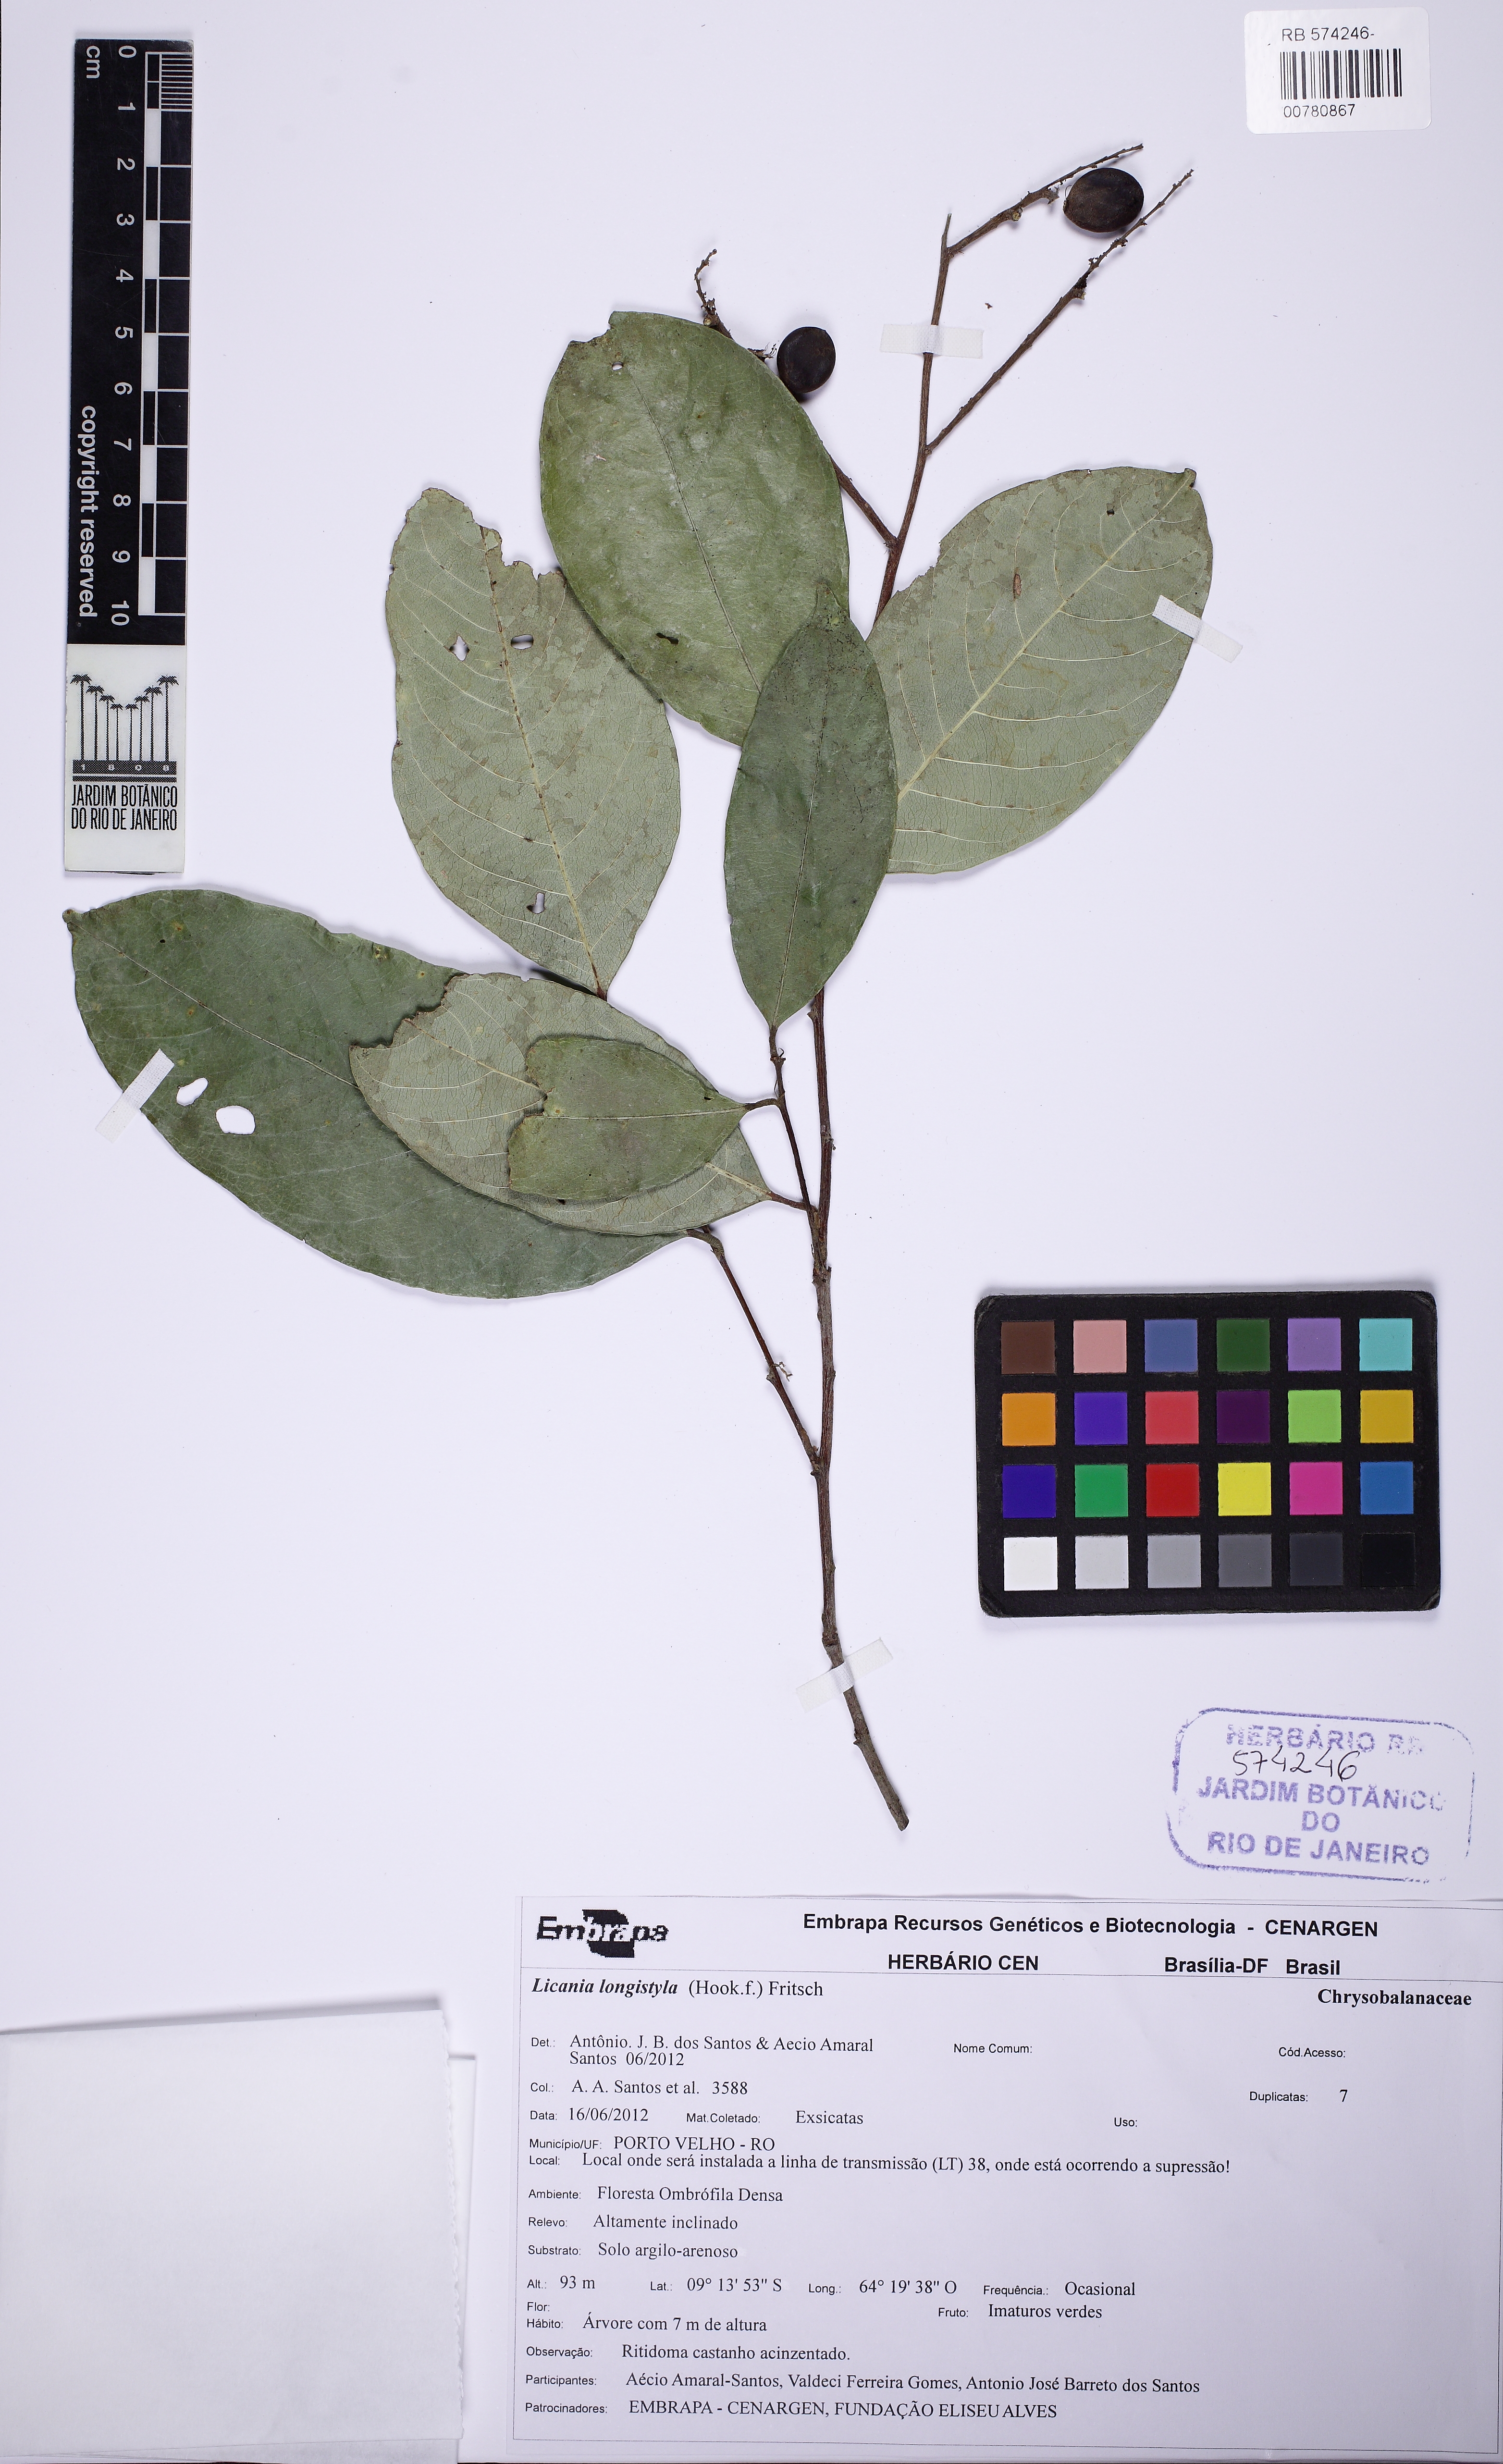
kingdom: Plantae
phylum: Tracheophyta
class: Magnoliopsida
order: Malpighiales
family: Chrysobalanaceae
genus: Leptobalanus
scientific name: Leptobalanus longistylus
